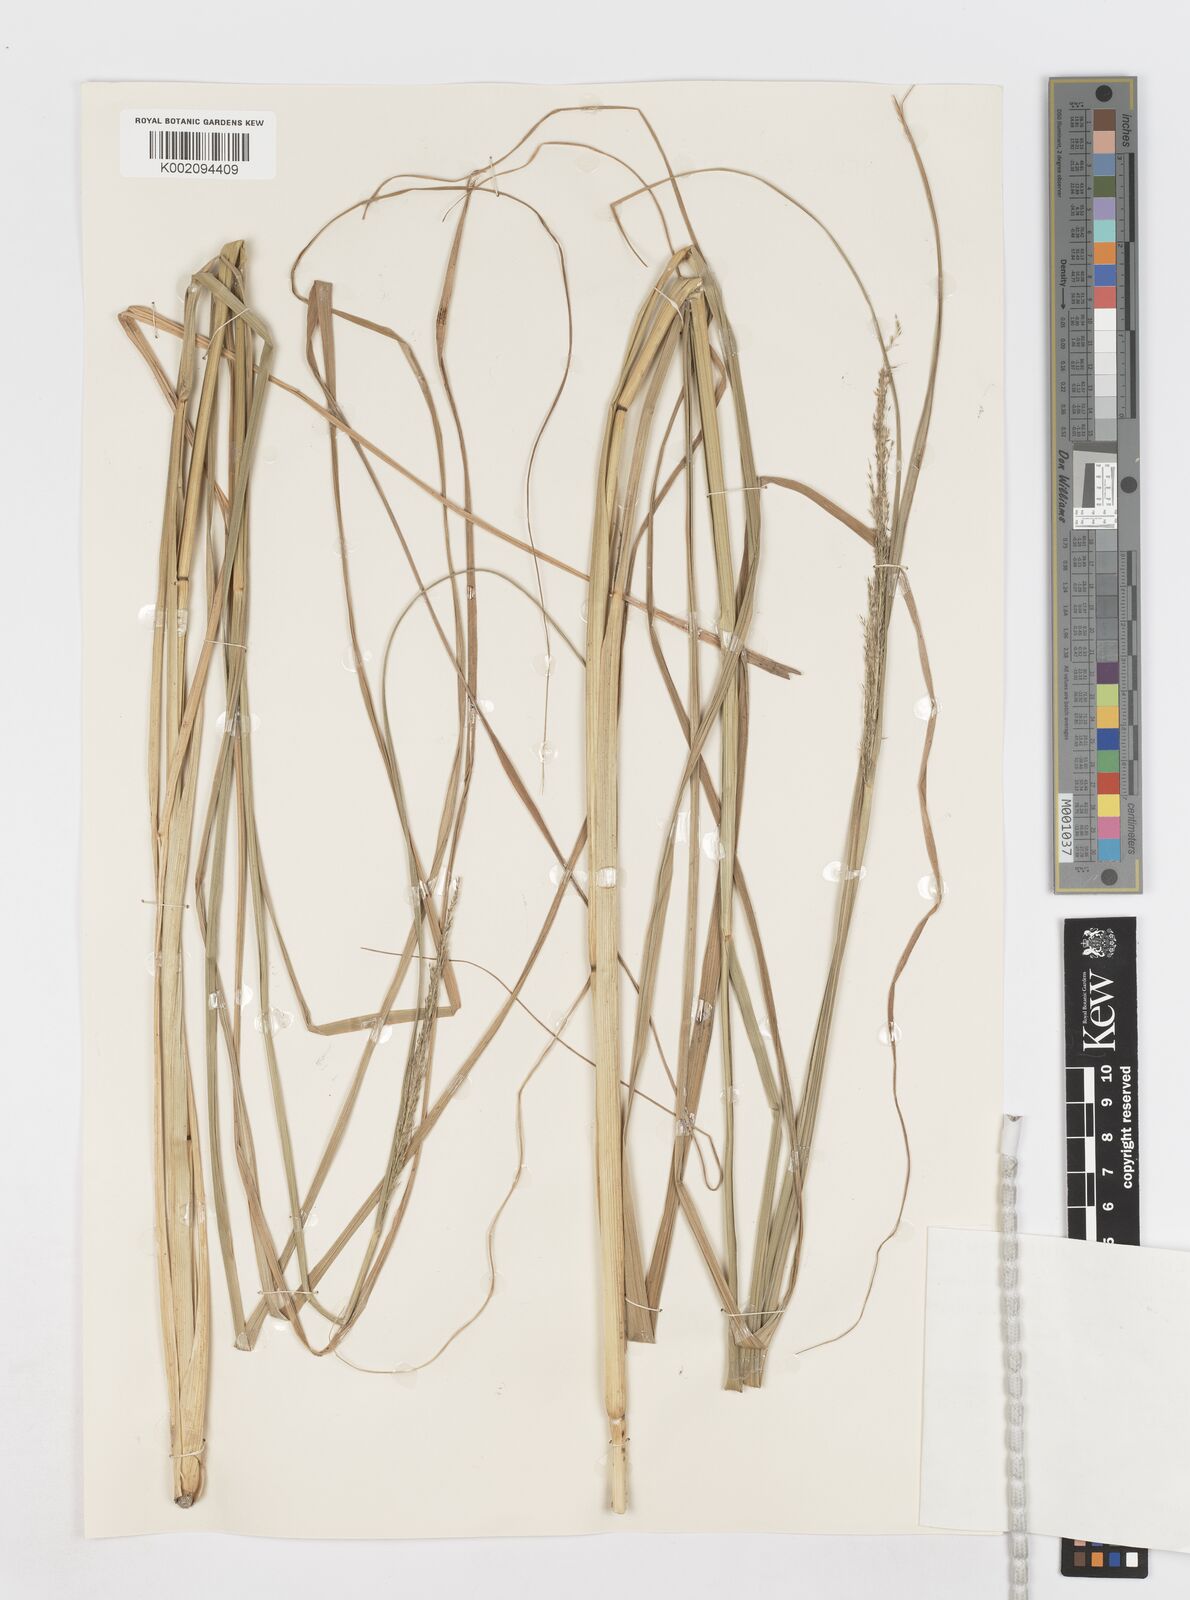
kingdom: Plantae
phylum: Tracheophyta
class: Liliopsida
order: Poales
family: Poaceae
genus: Sporobolus
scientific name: Sporobolus fertilis
